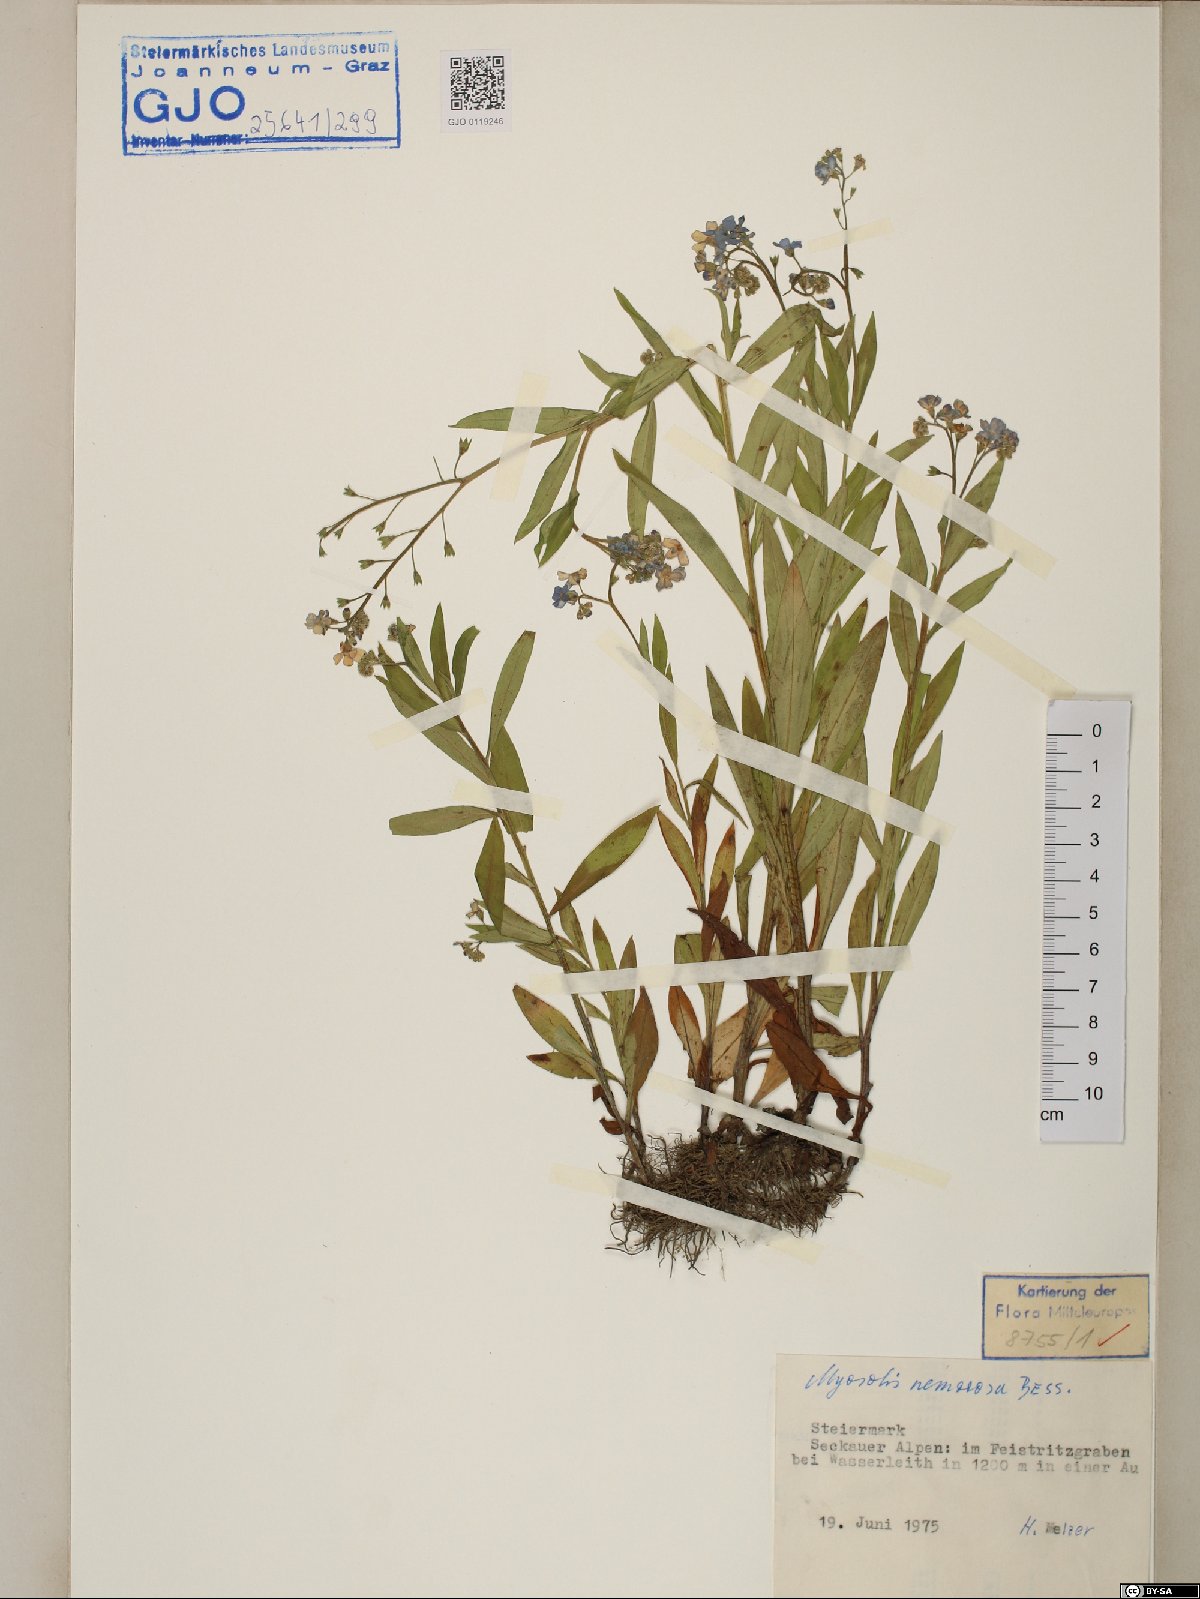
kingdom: Plantae
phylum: Tracheophyta
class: Magnoliopsida
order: Boraginales
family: Boraginaceae
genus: Myosotis
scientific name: Myosotis nemorosa
